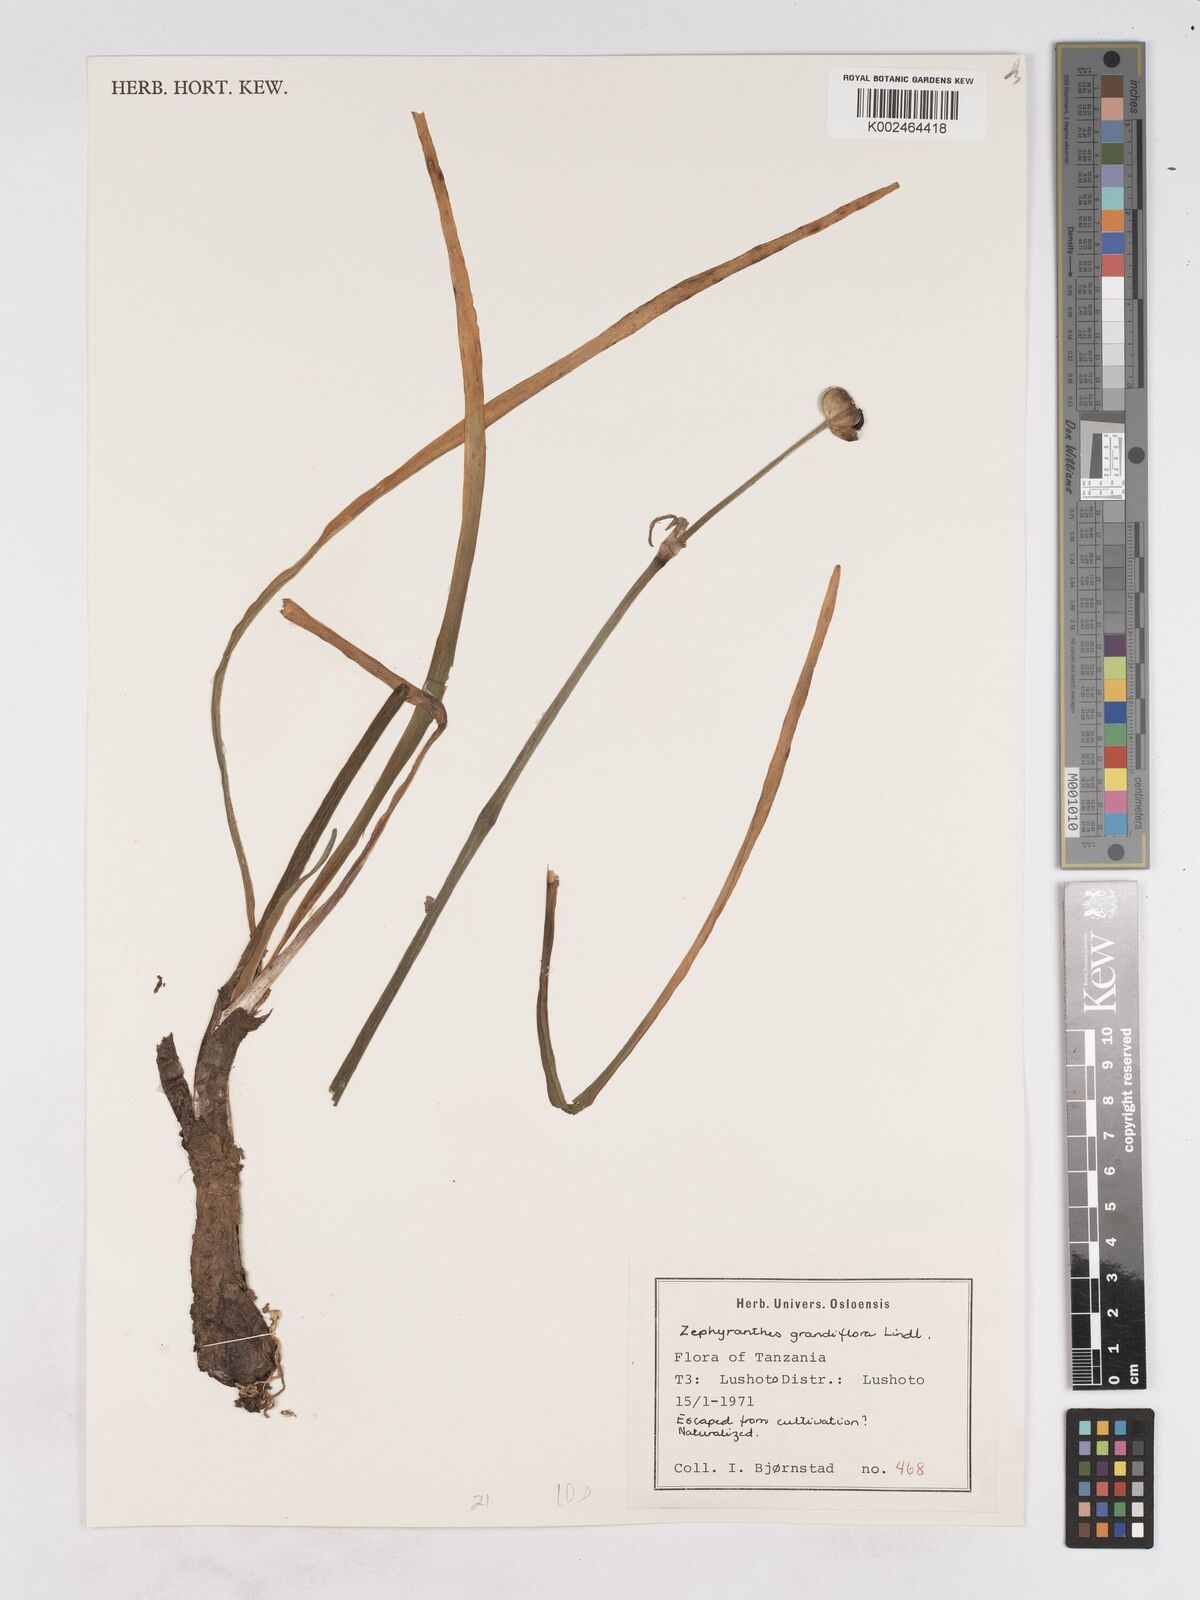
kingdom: Plantae
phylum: Tracheophyta
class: Liliopsida
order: Asparagales
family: Amaryllidaceae
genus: Zephyranthes
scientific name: Zephyranthes minuta
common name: Pink rain lily
